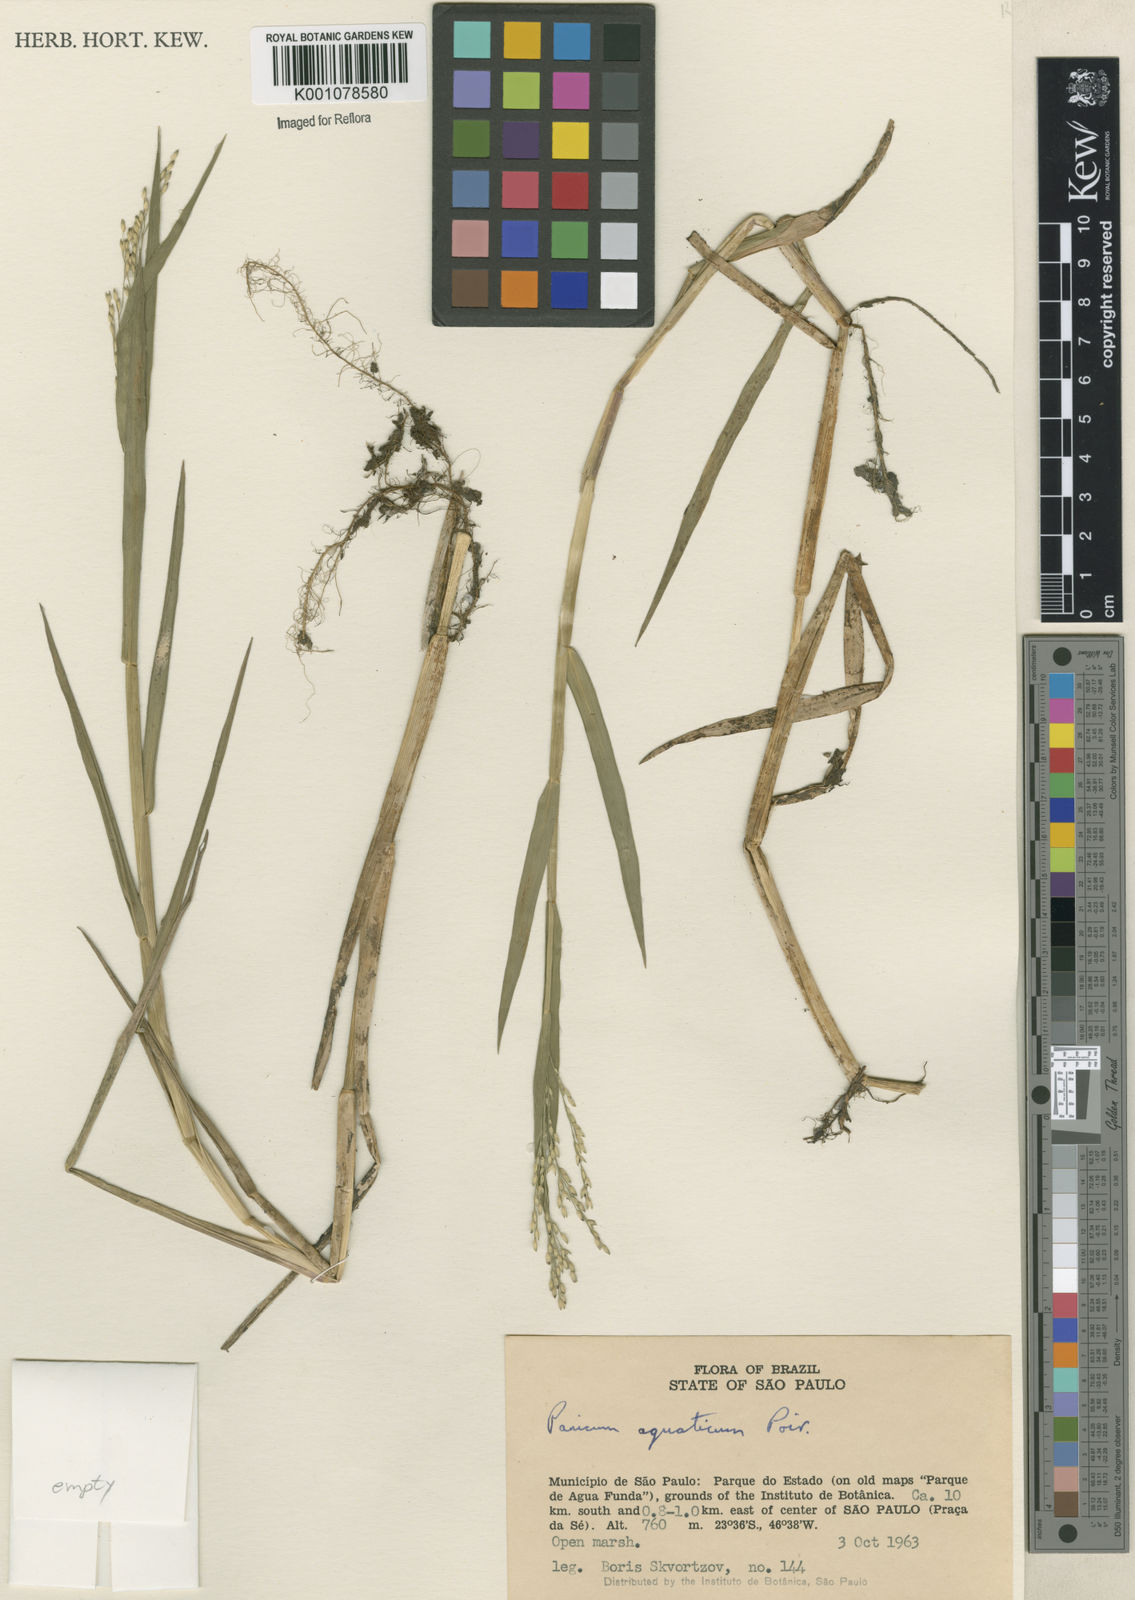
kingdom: Plantae
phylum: Tracheophyta
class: Liliopsida
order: Poales
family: Poaceae
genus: Panicum
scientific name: Panicum dichotomiflorum
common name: Autumn millet
